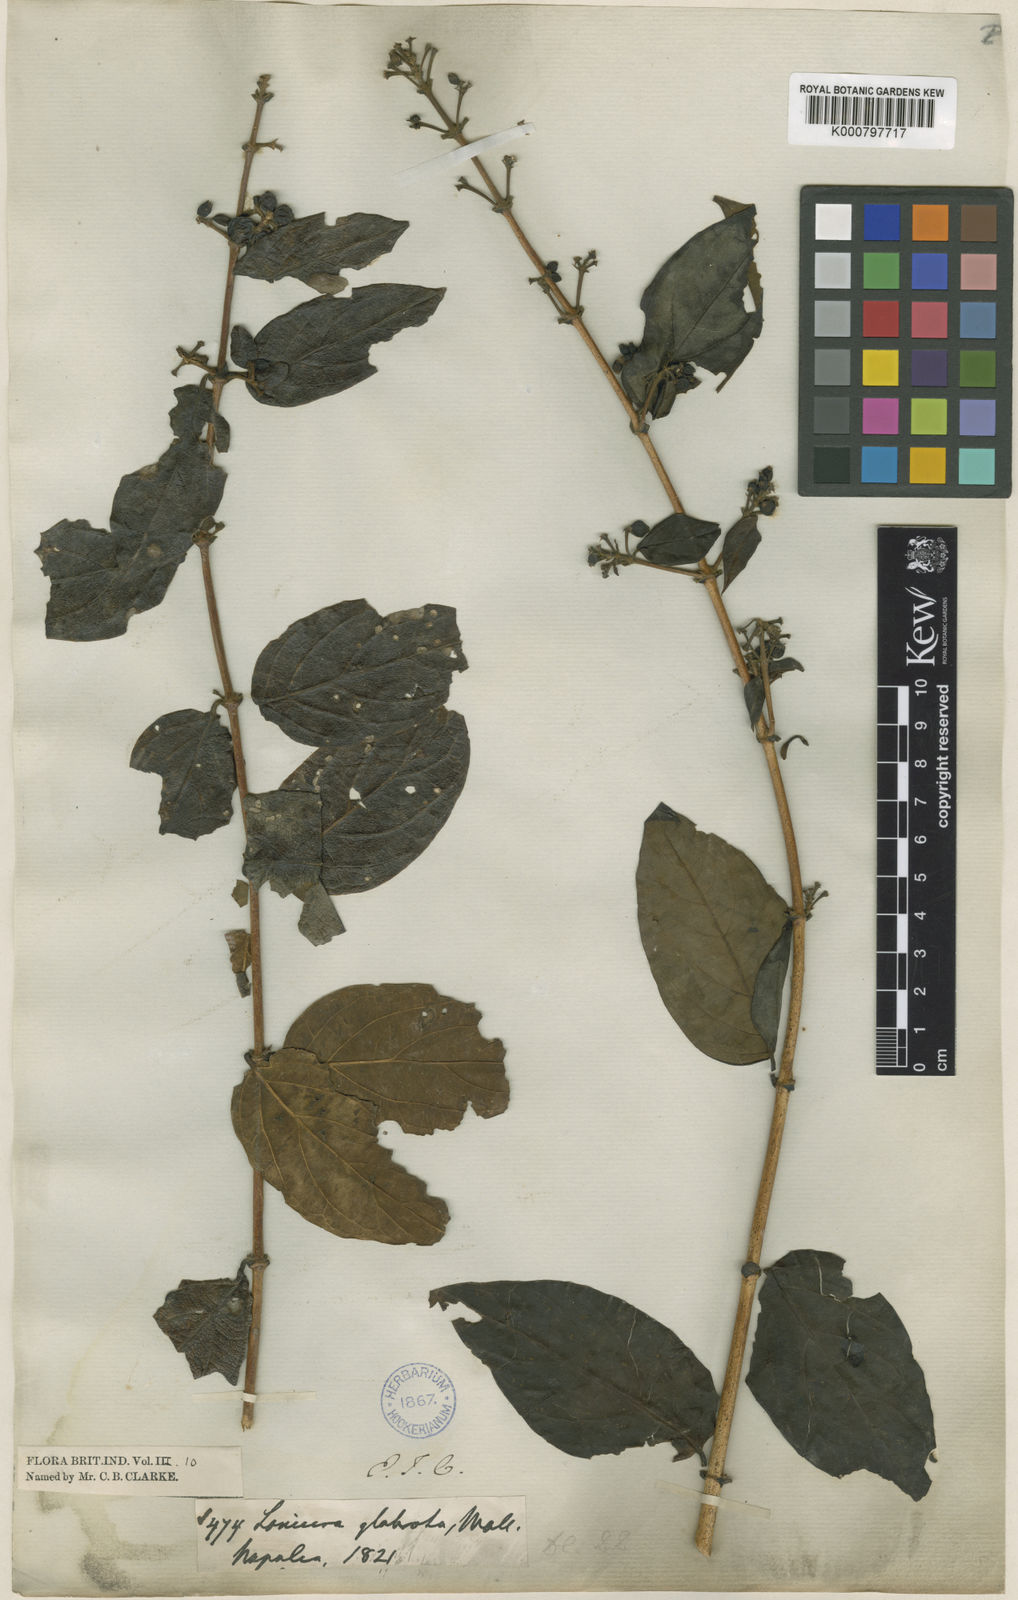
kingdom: Plantae
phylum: Tracheophyta
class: Magnoliopsida
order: Dipsacales
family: Caprifoliaceae
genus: Lonicera
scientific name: Lonicera glabrata
